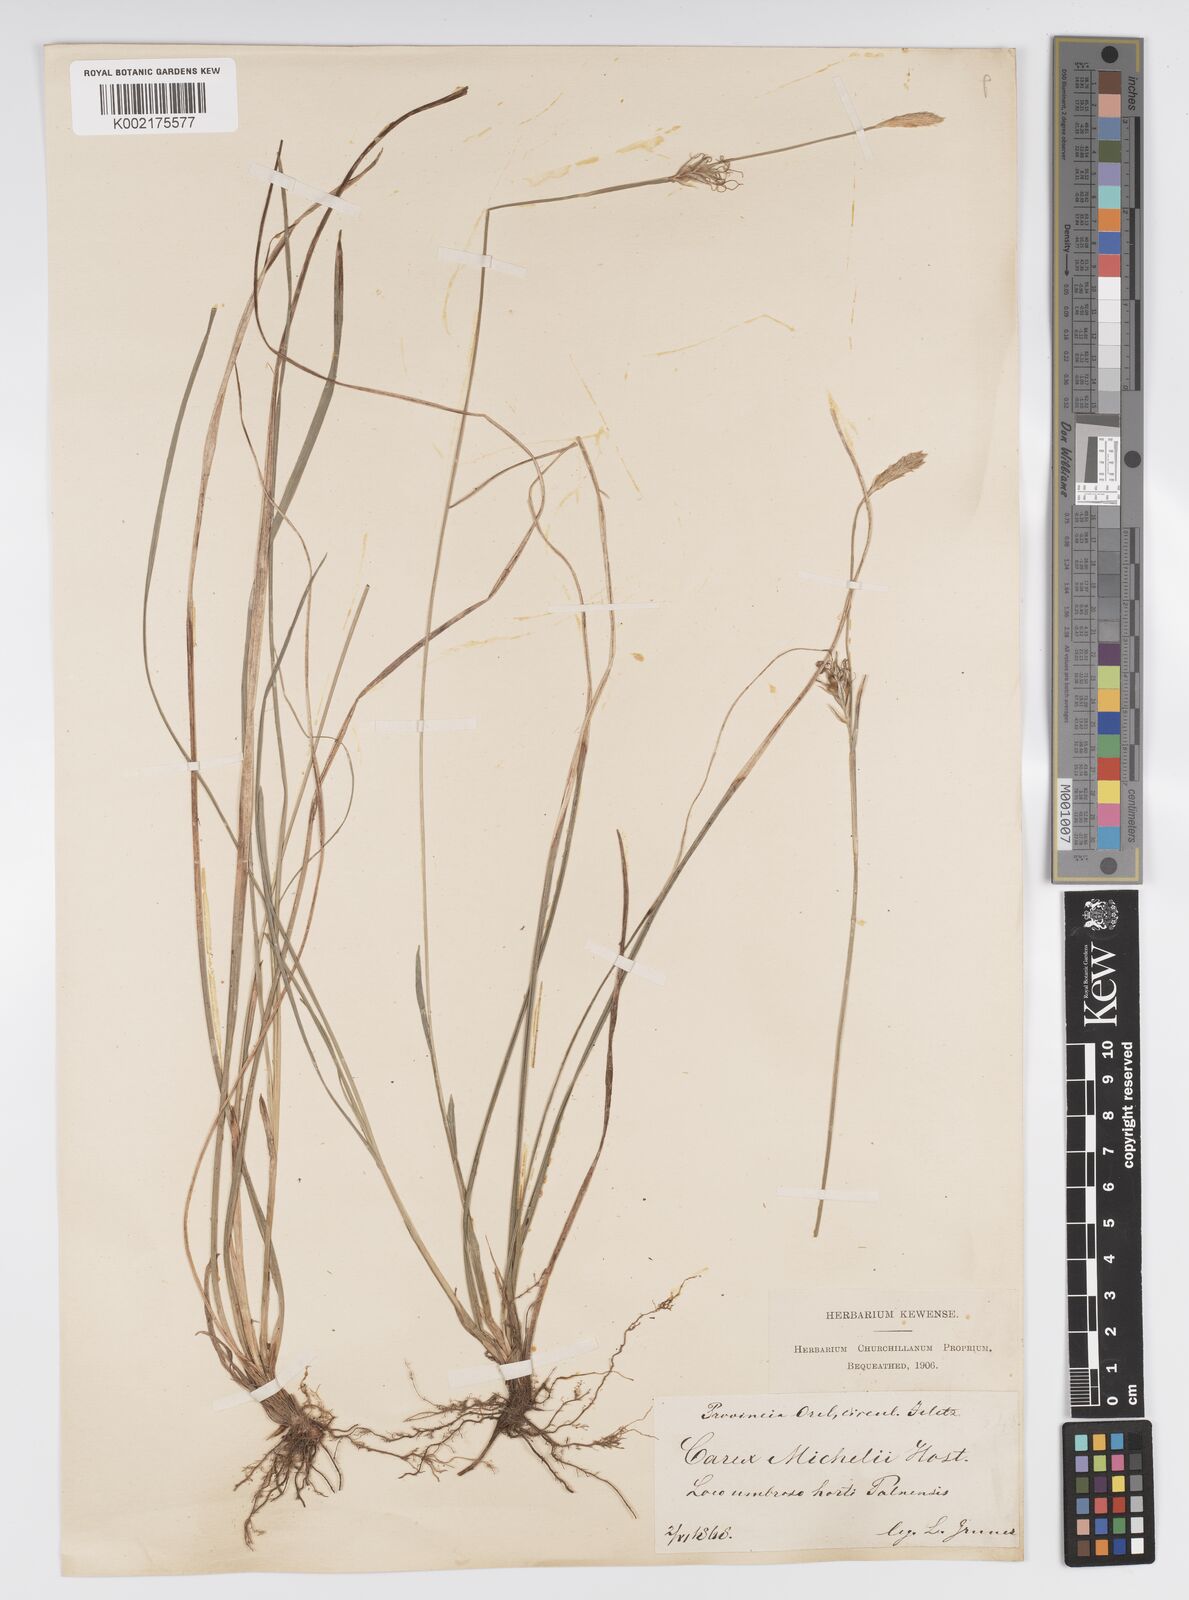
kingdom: Plantae
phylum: Tracheophyta
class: Liliopsida
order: Poales
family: Cyperaceae
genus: Carex
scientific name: Carex michelii
